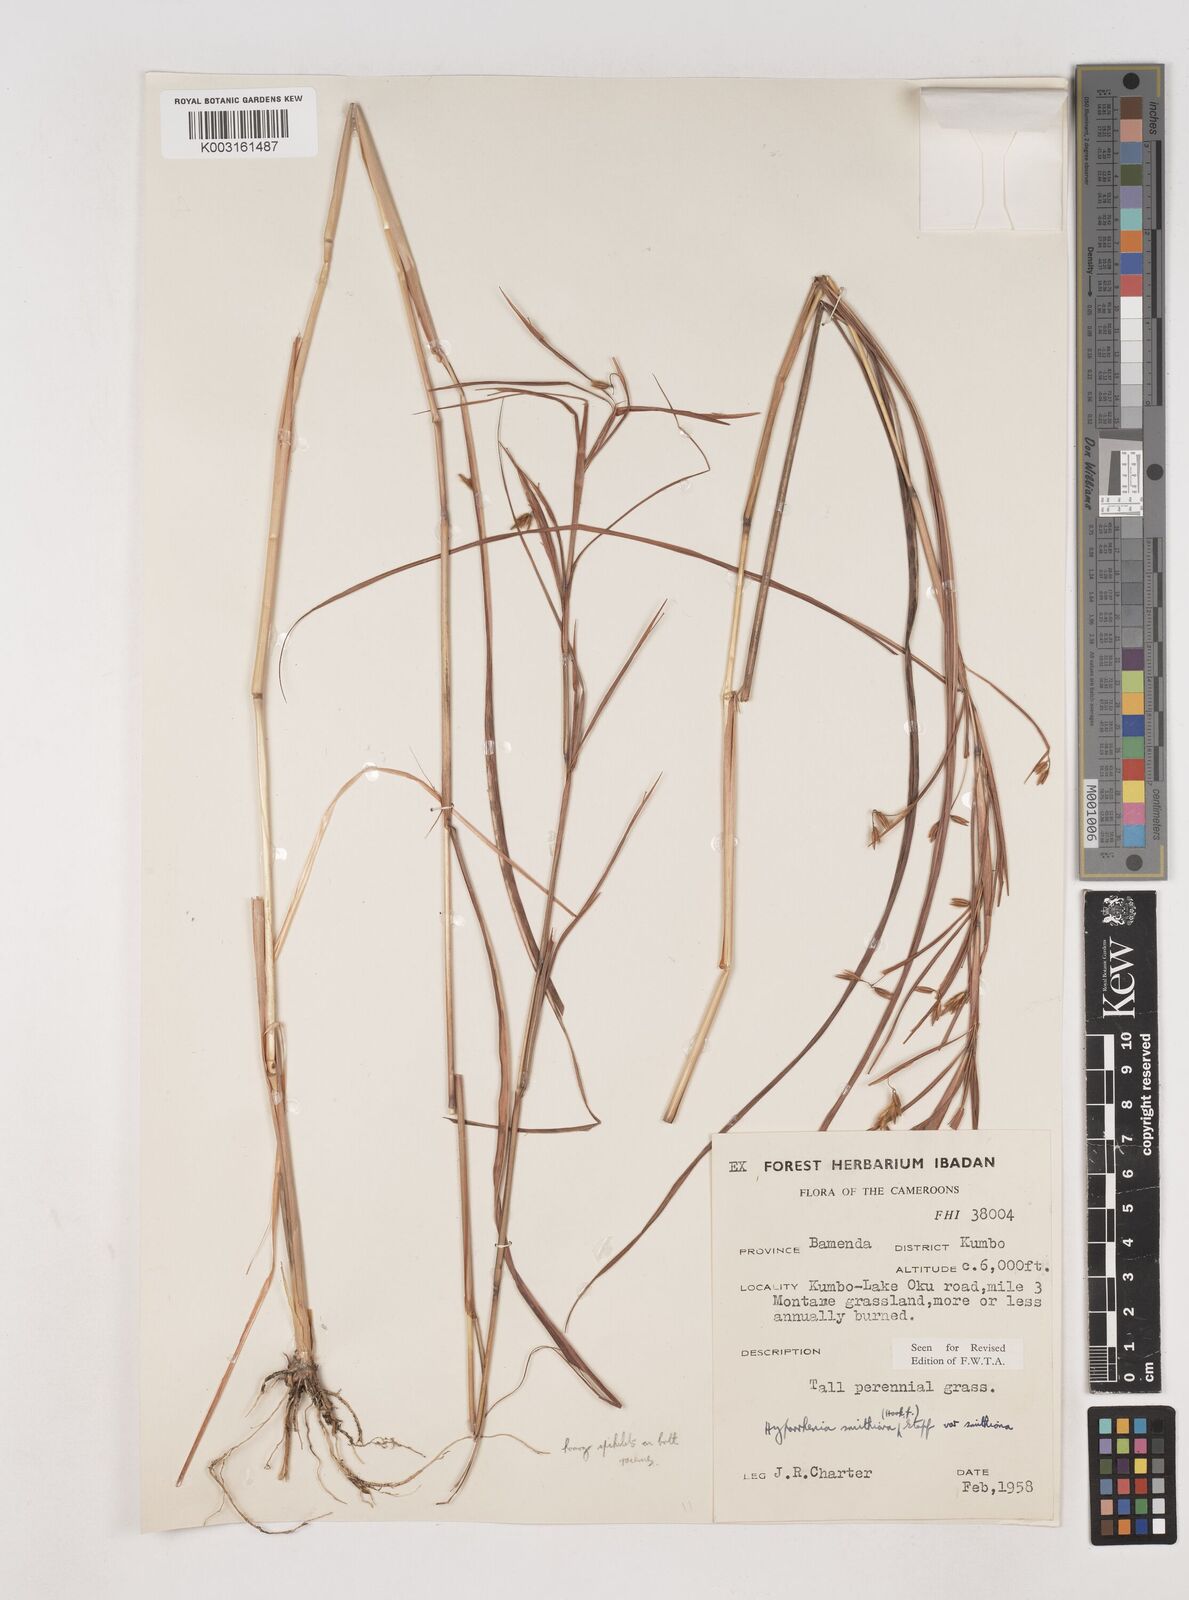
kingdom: Plantae
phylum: Tracheophyta
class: Liliopsida
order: Poales
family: Poaceae
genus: Hyparrhenia
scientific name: Hyparrhenia smithiana
